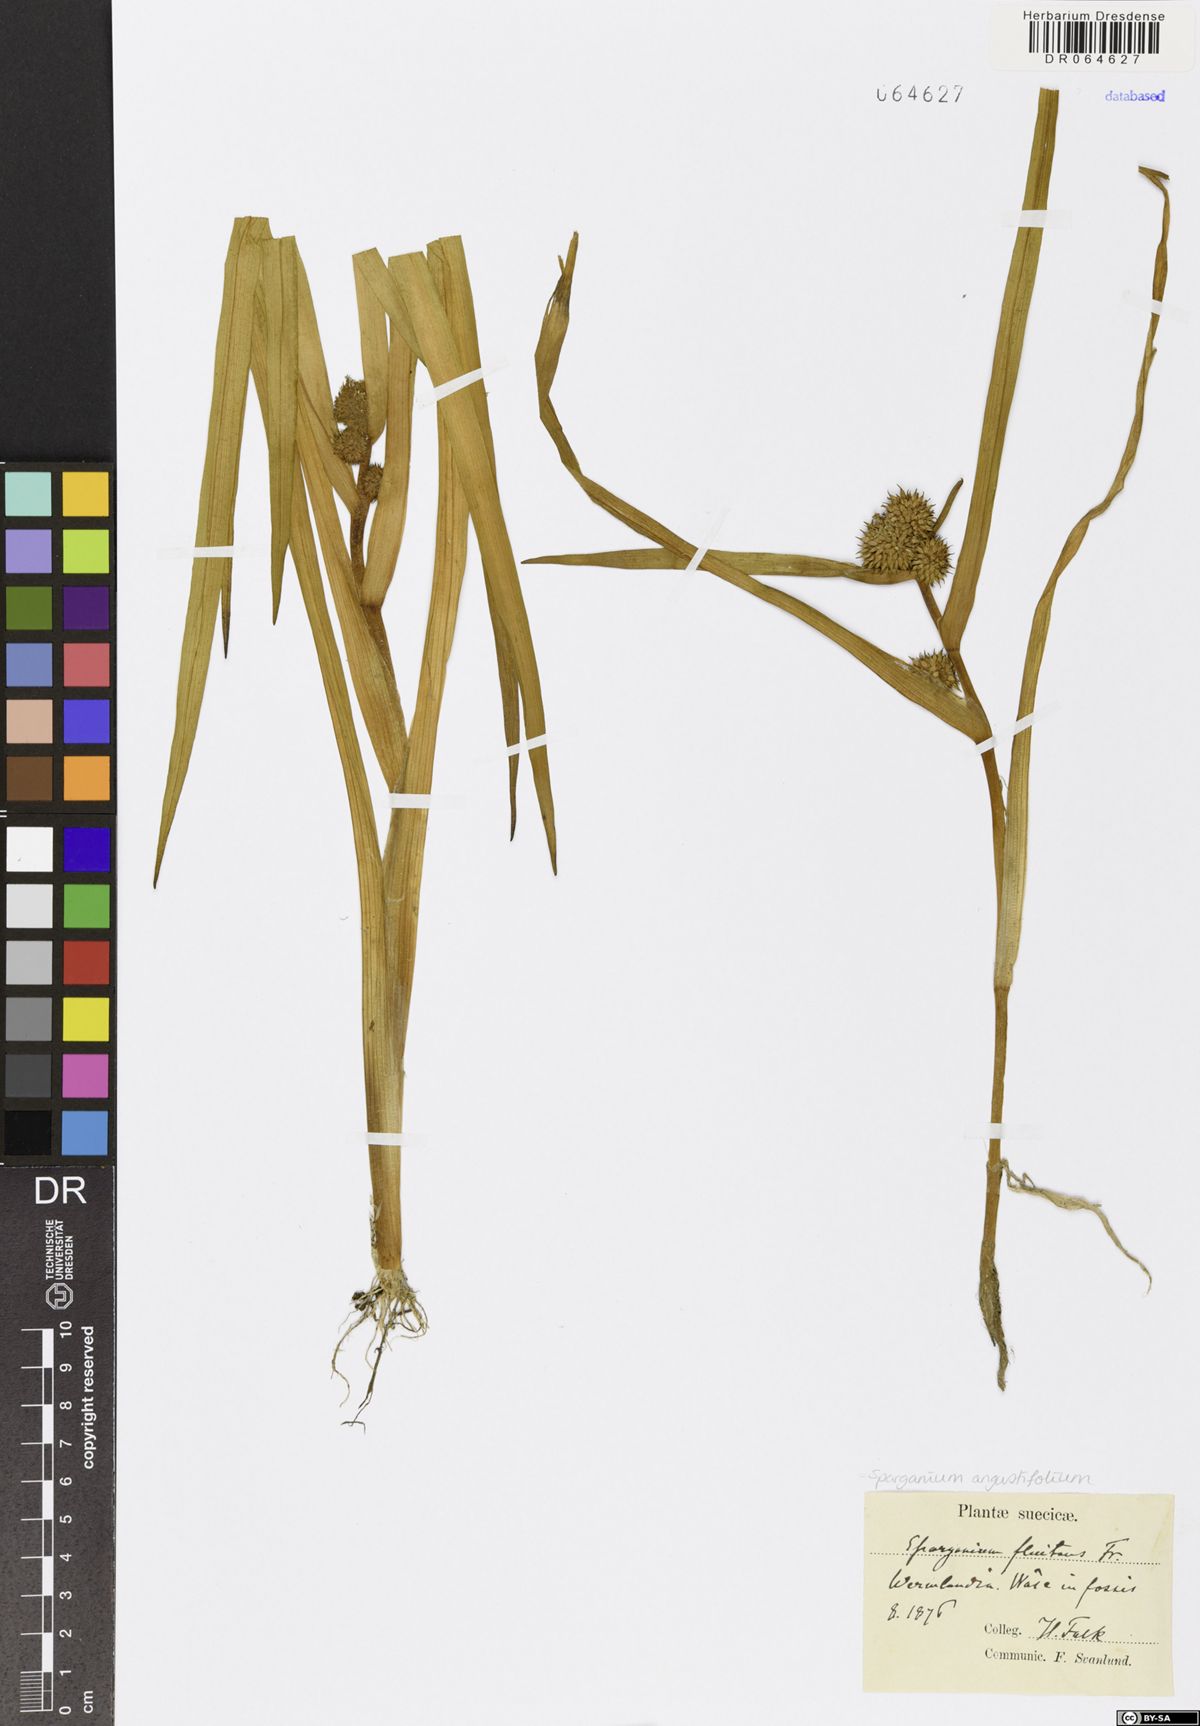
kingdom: Plantae
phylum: Tracheophyta
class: Liliopsida
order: Poales
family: Typhaceae
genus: Sparganium
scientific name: Sparganium angustifolium
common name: Floating bur-reed
